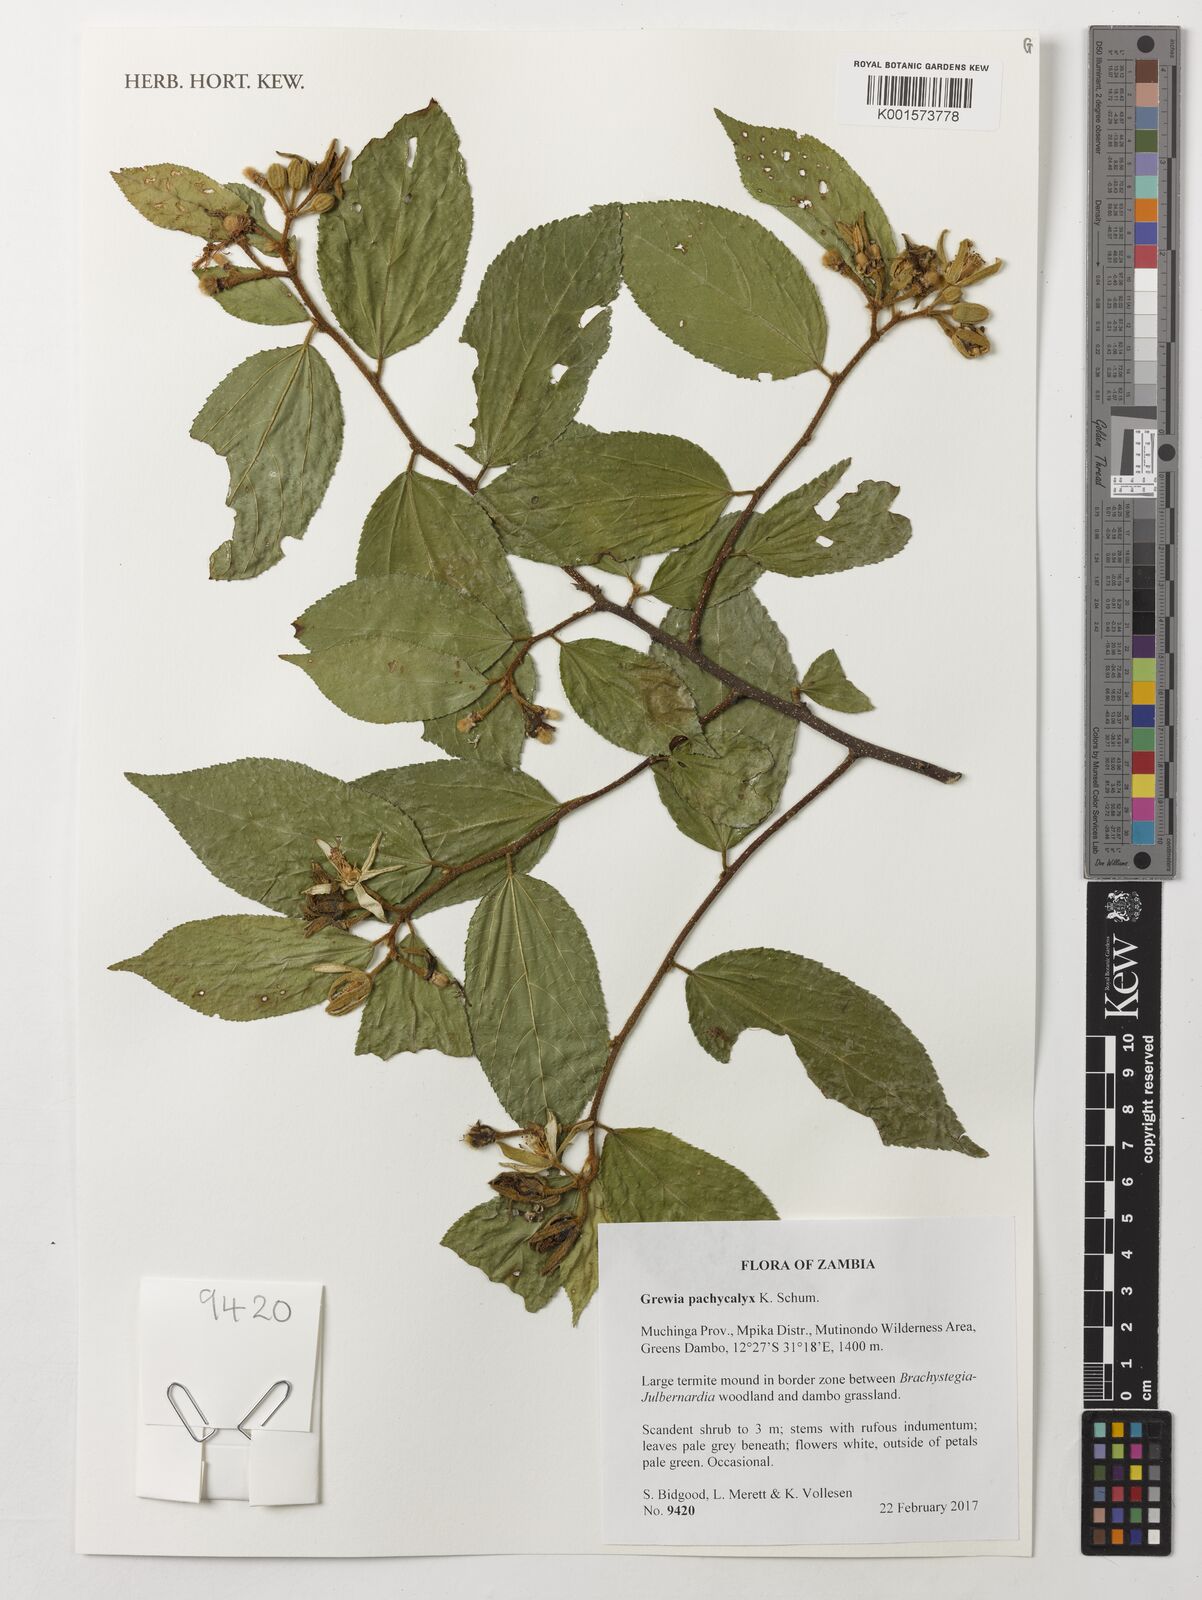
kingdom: Plantae
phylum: Tracheophyta
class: Magnoliopsida
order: Malvales
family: Malvaceae
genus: Grewia
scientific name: Grewia pachycalyx
